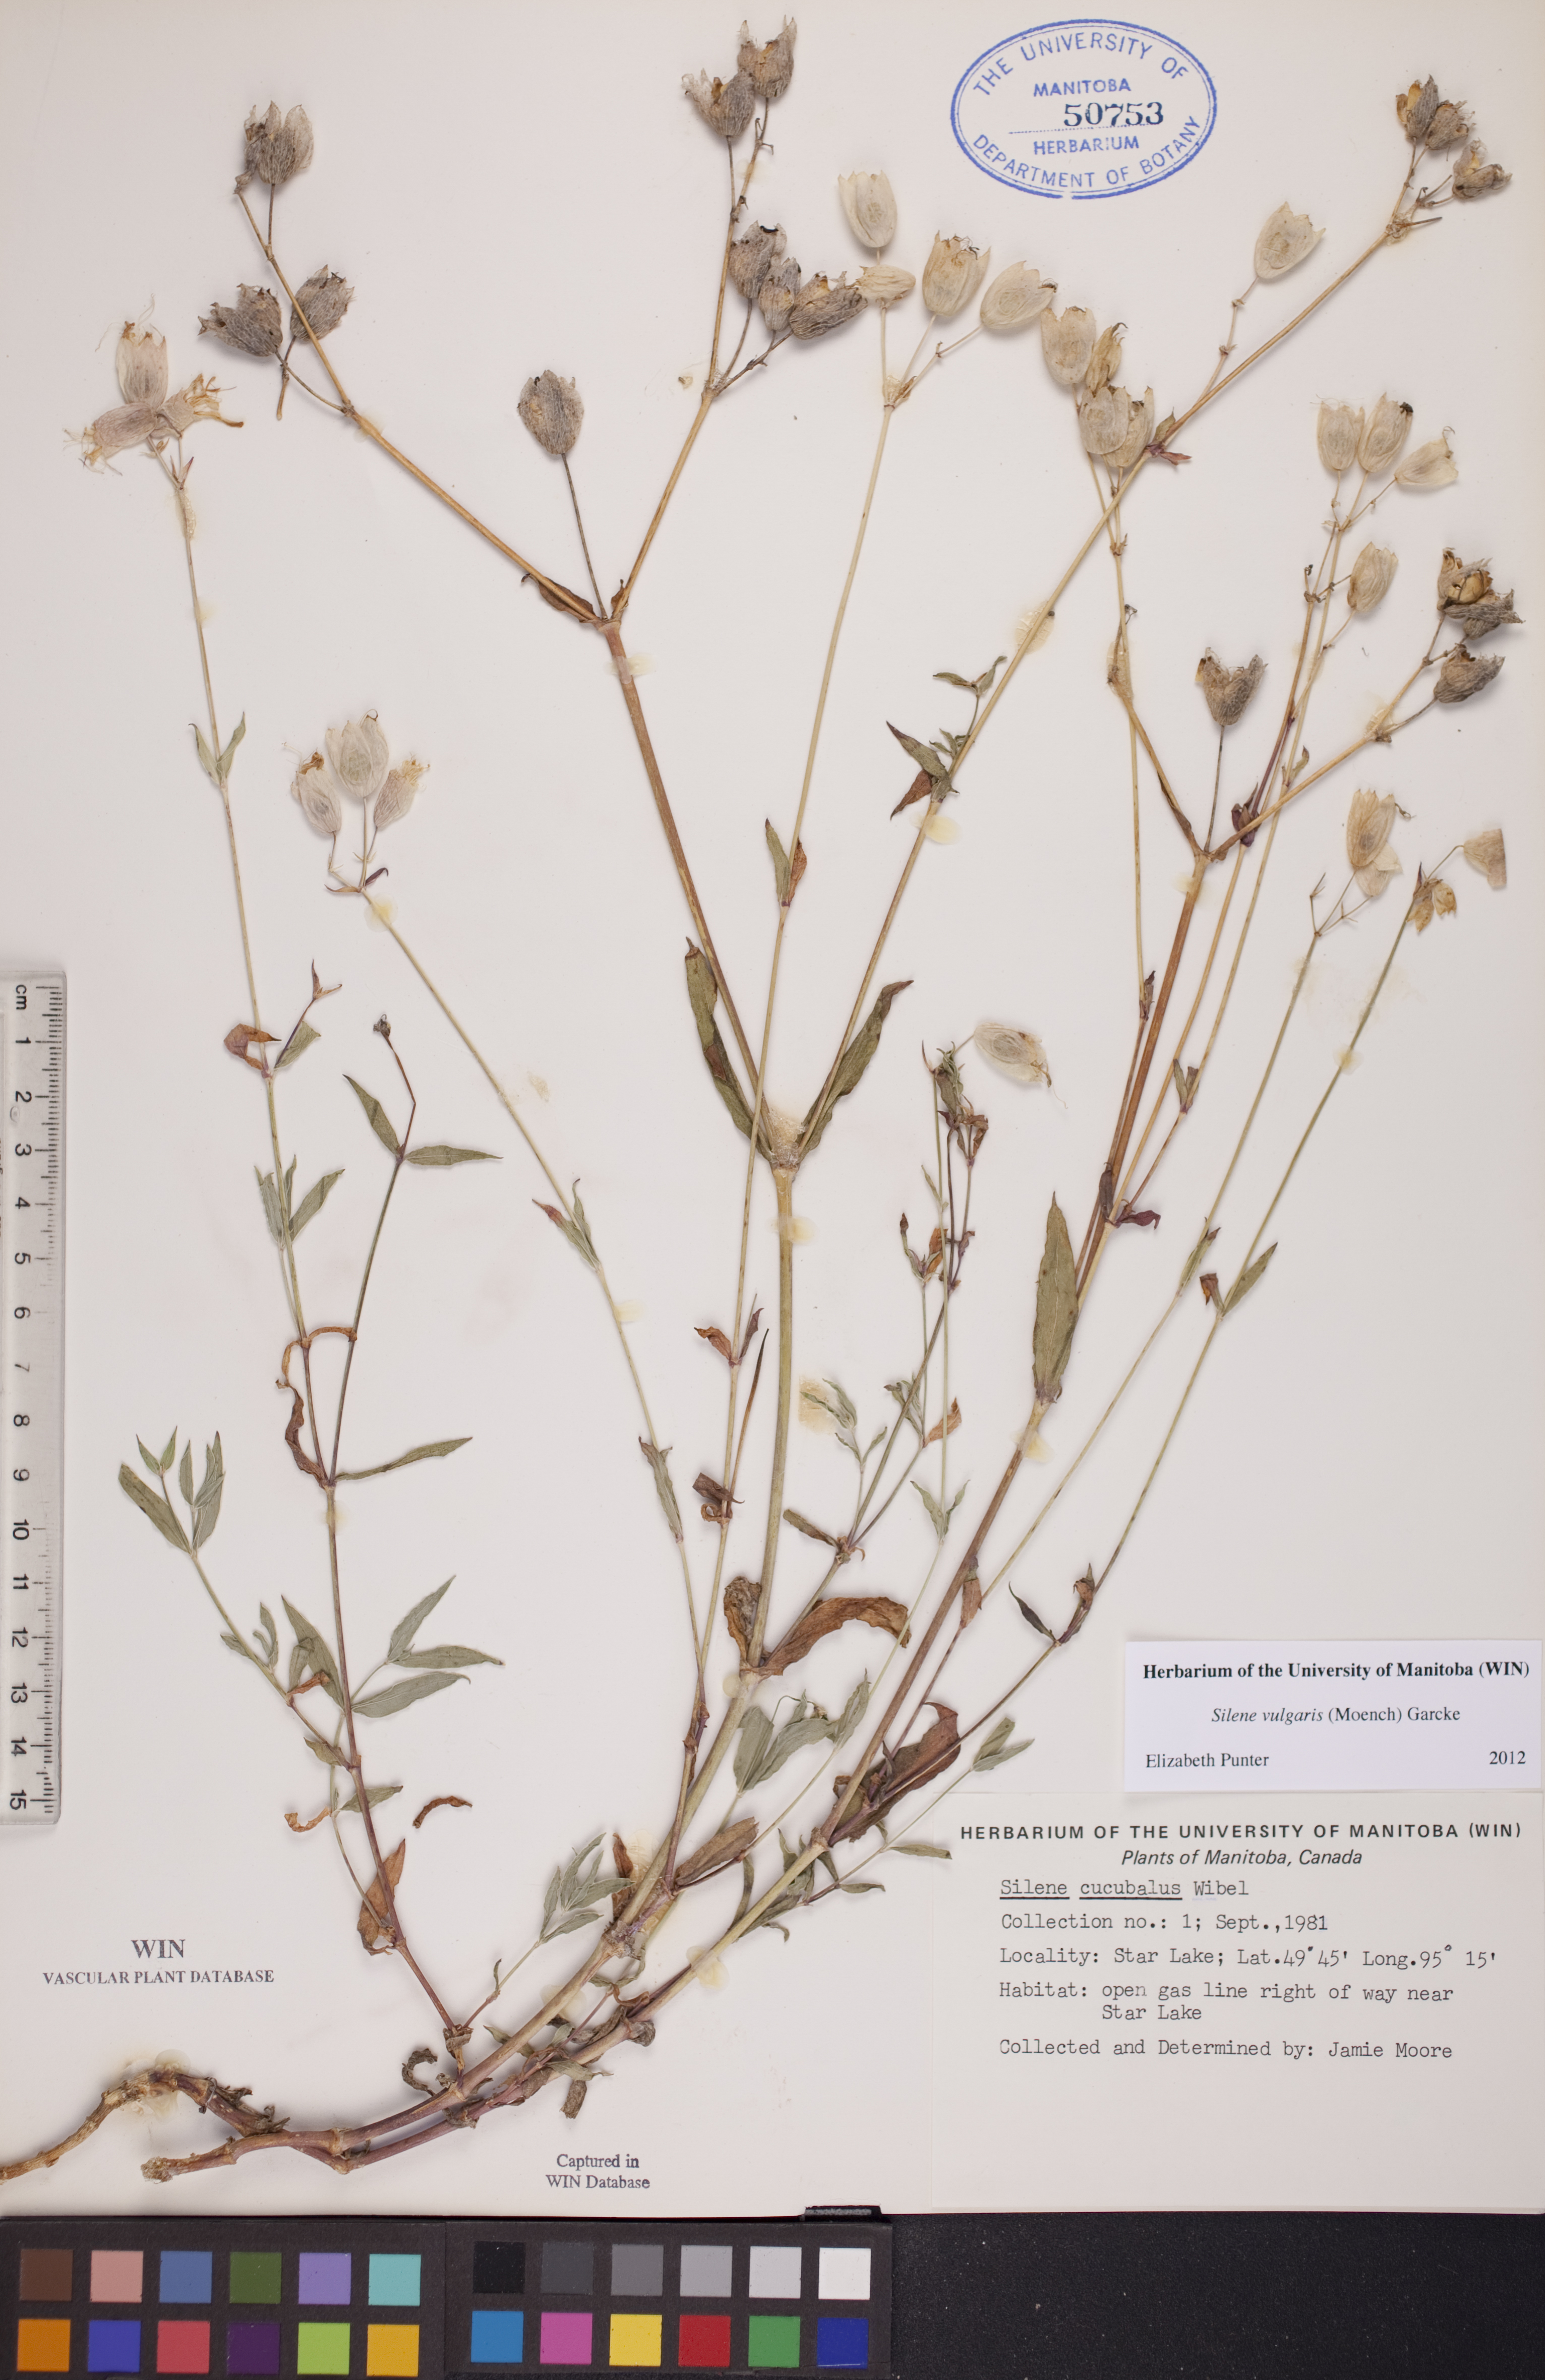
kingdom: Plantae
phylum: Tracheophyta
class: Magnoliopsida
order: Caryophyllales
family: Caryophyllaceae
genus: Silene
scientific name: Silene vulgaris
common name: Bladder campion
